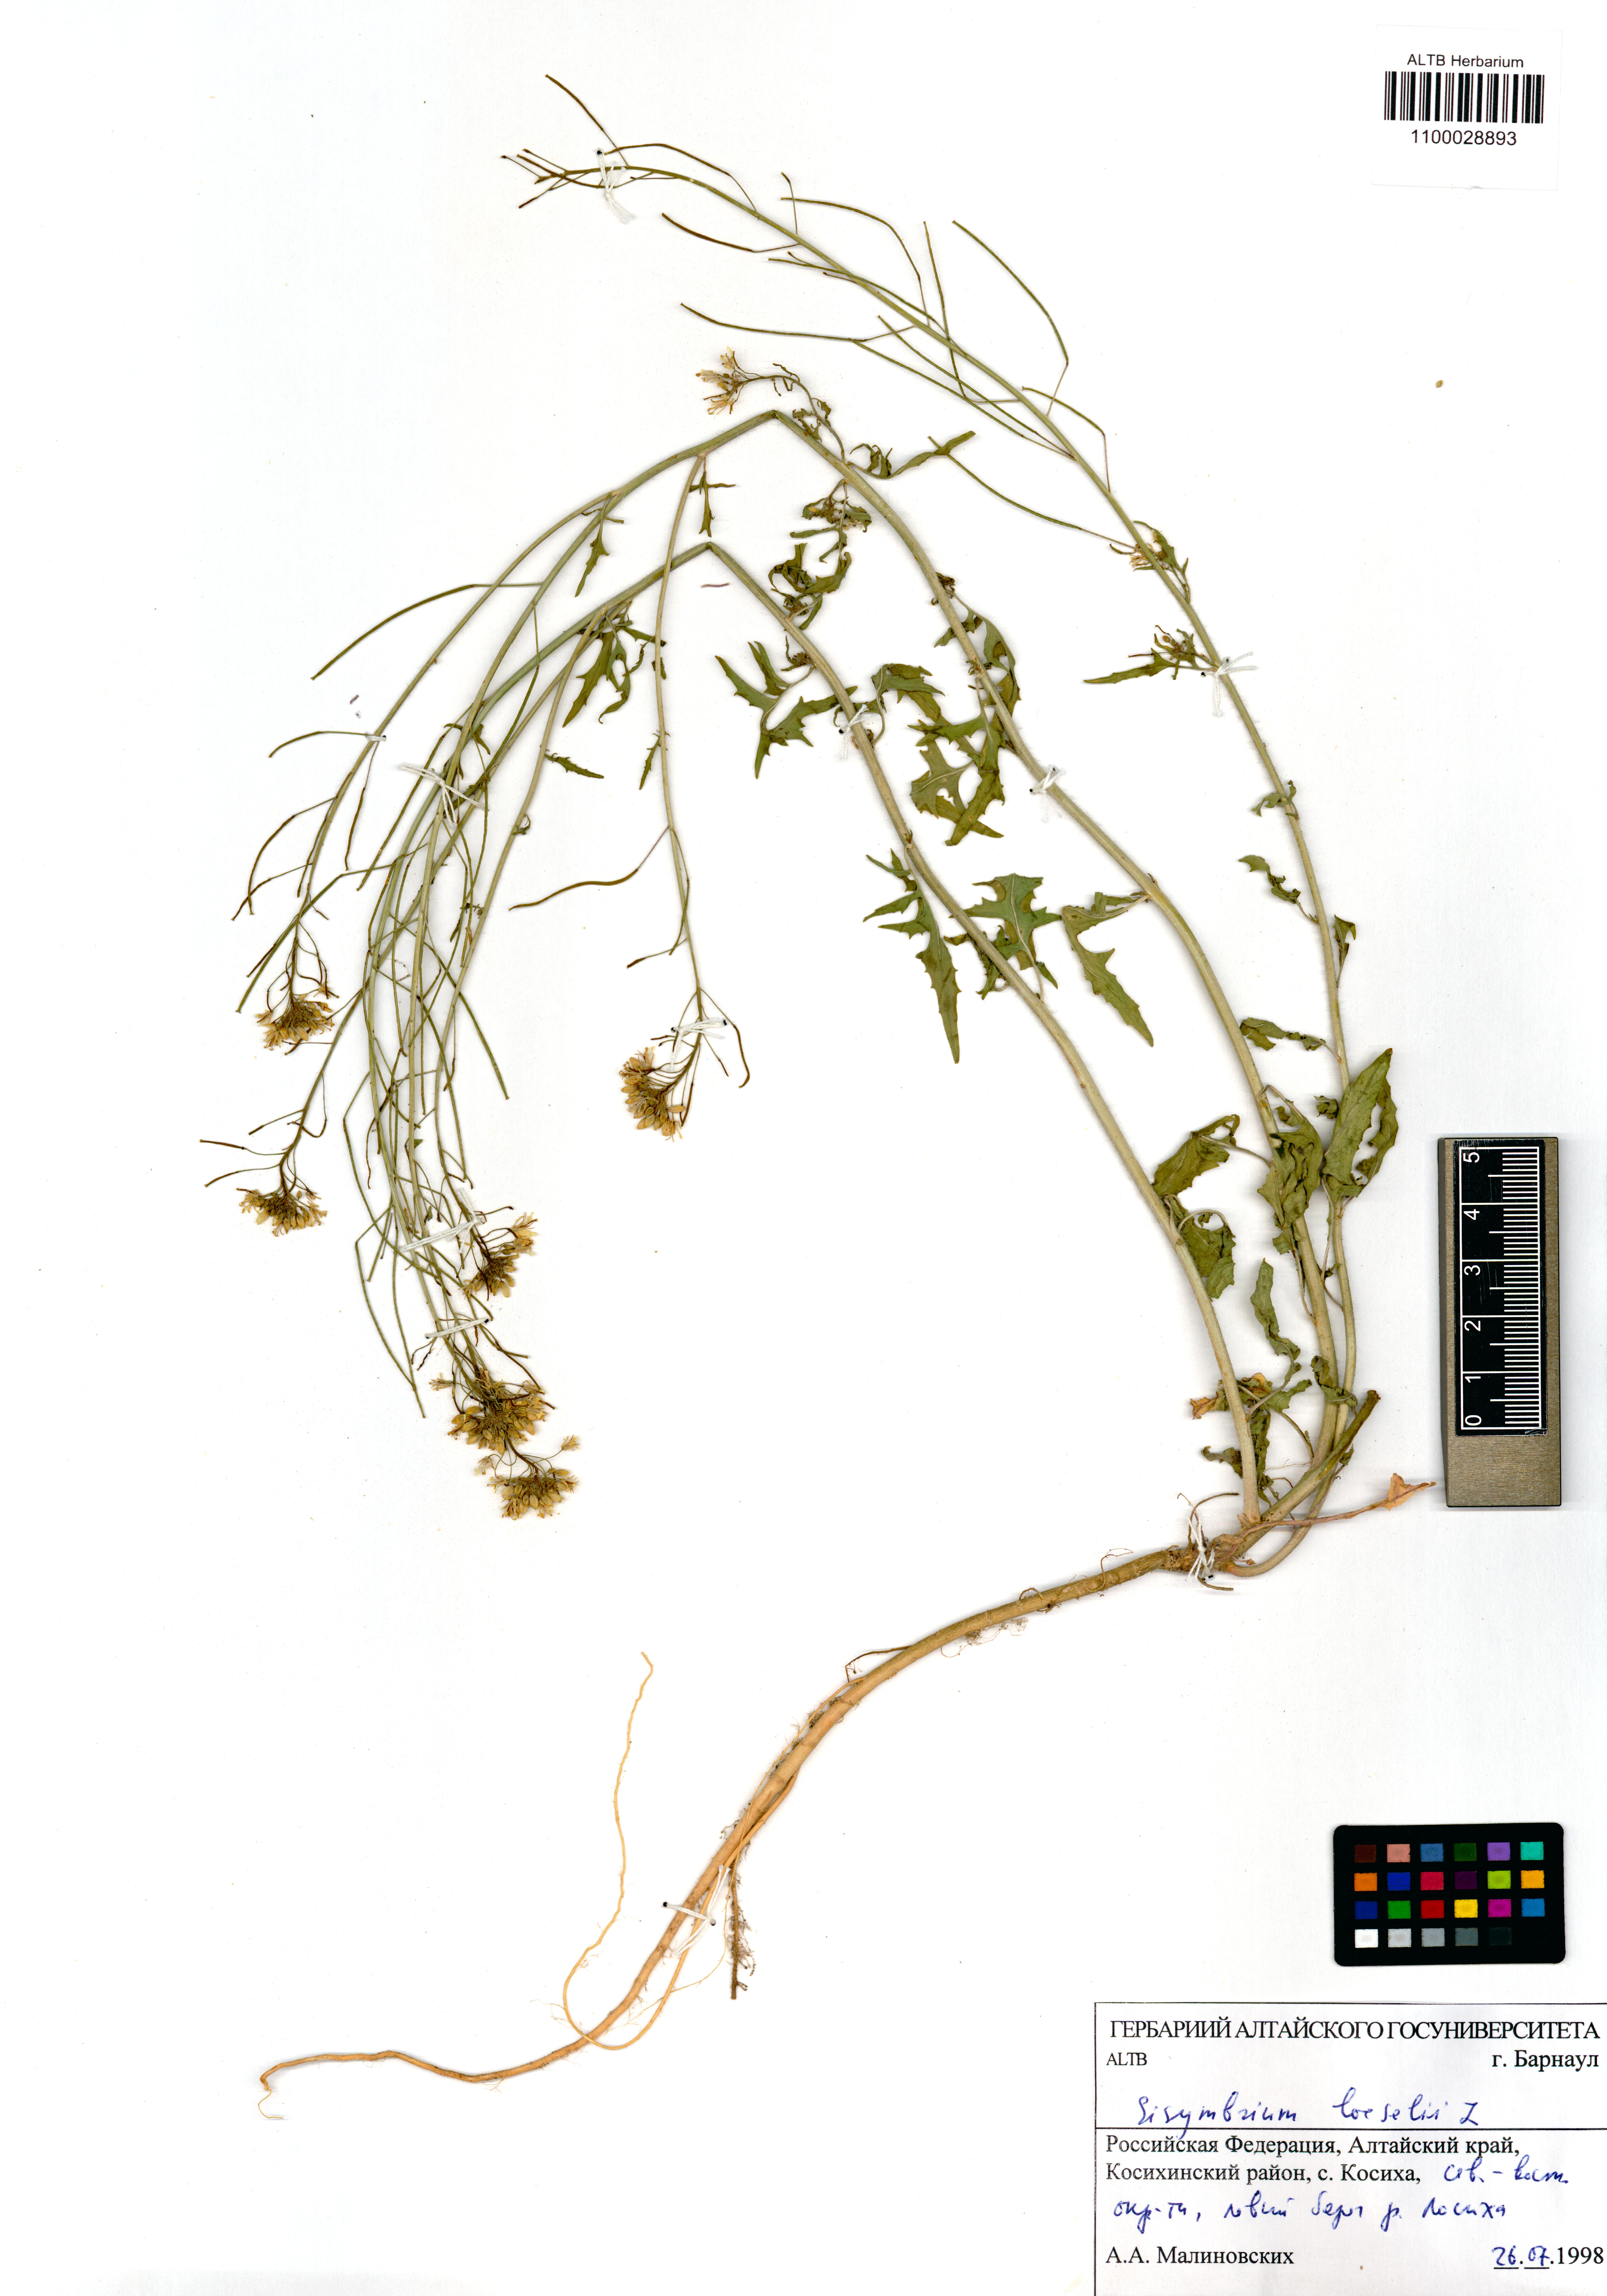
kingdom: Plantae
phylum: Tracheophyta
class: Magnoliopsida
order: Brassicales
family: Brassicaceae
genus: Sisymbrium
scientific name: Sisymbrium loeselii
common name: False london-rocket
